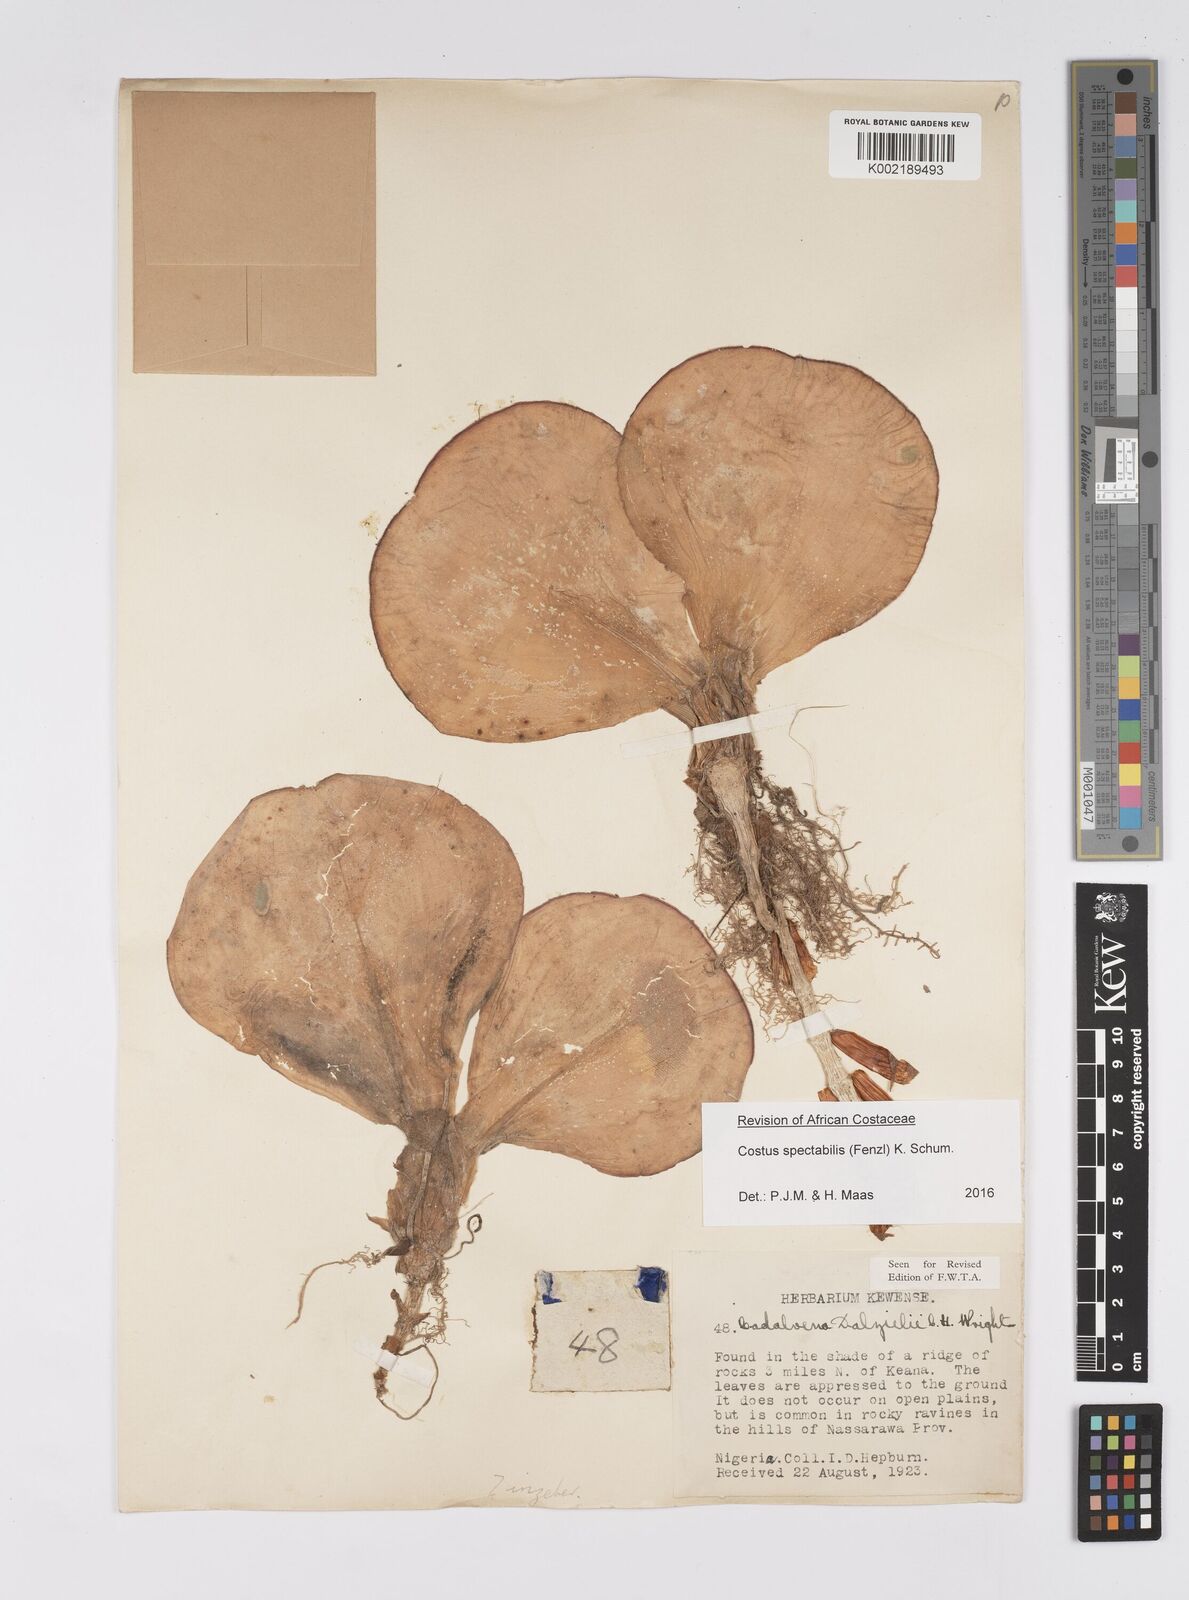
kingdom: Plantae
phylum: Tracheophyta
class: Liliopsida
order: Zingiberales
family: Costaceae
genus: Costus
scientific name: Costus spectabilis
